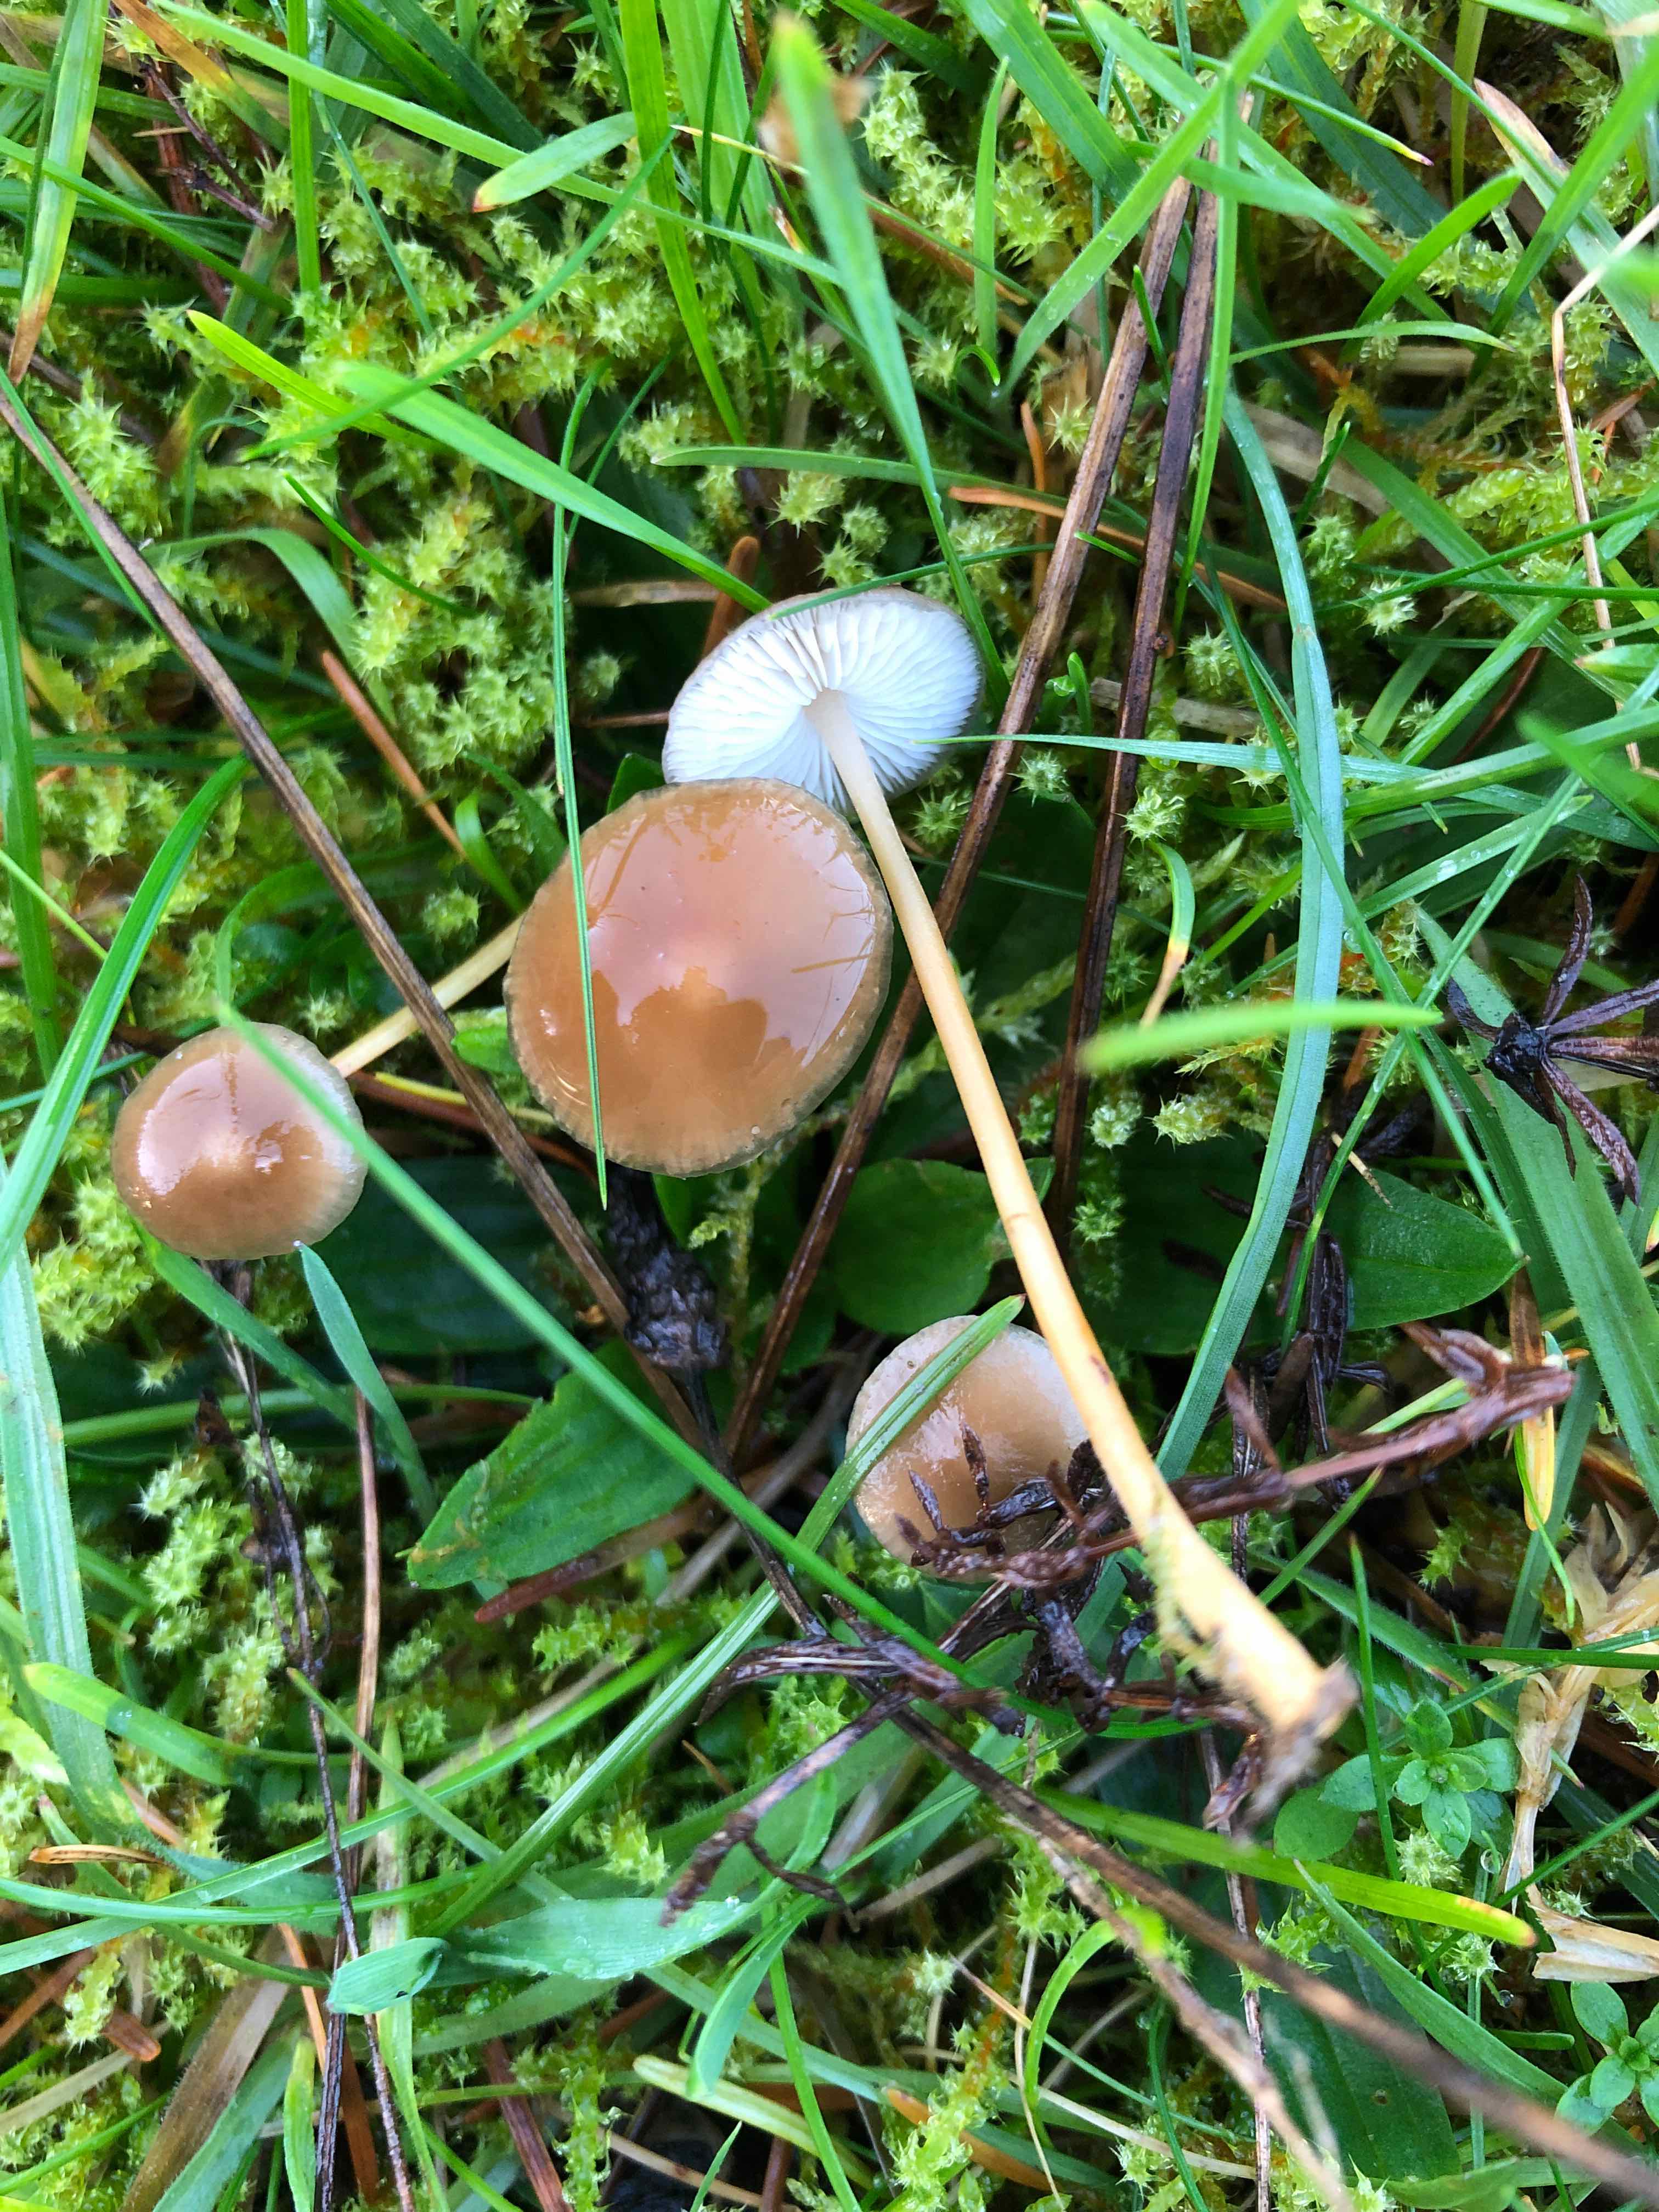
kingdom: Fungi
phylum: Basidiomycota
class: Agaricomycetes
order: Agaricales
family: Physalacriaceae
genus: Strobilurus
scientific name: Strobilurus esculentus
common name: gran-koglehat
